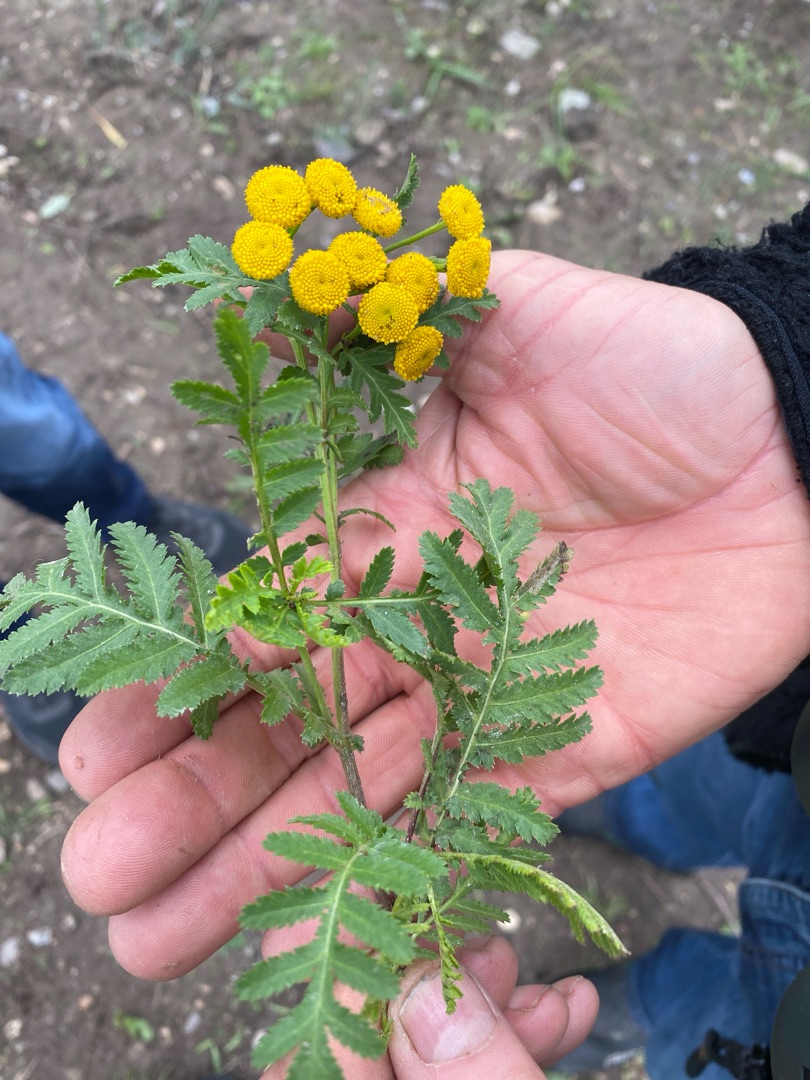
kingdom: Plantae
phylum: Tracheophyta
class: Magnoliopsida
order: Asterales
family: Asteraceae
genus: Tanacetum
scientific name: Tanacetum vulgare
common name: Rejnfan
